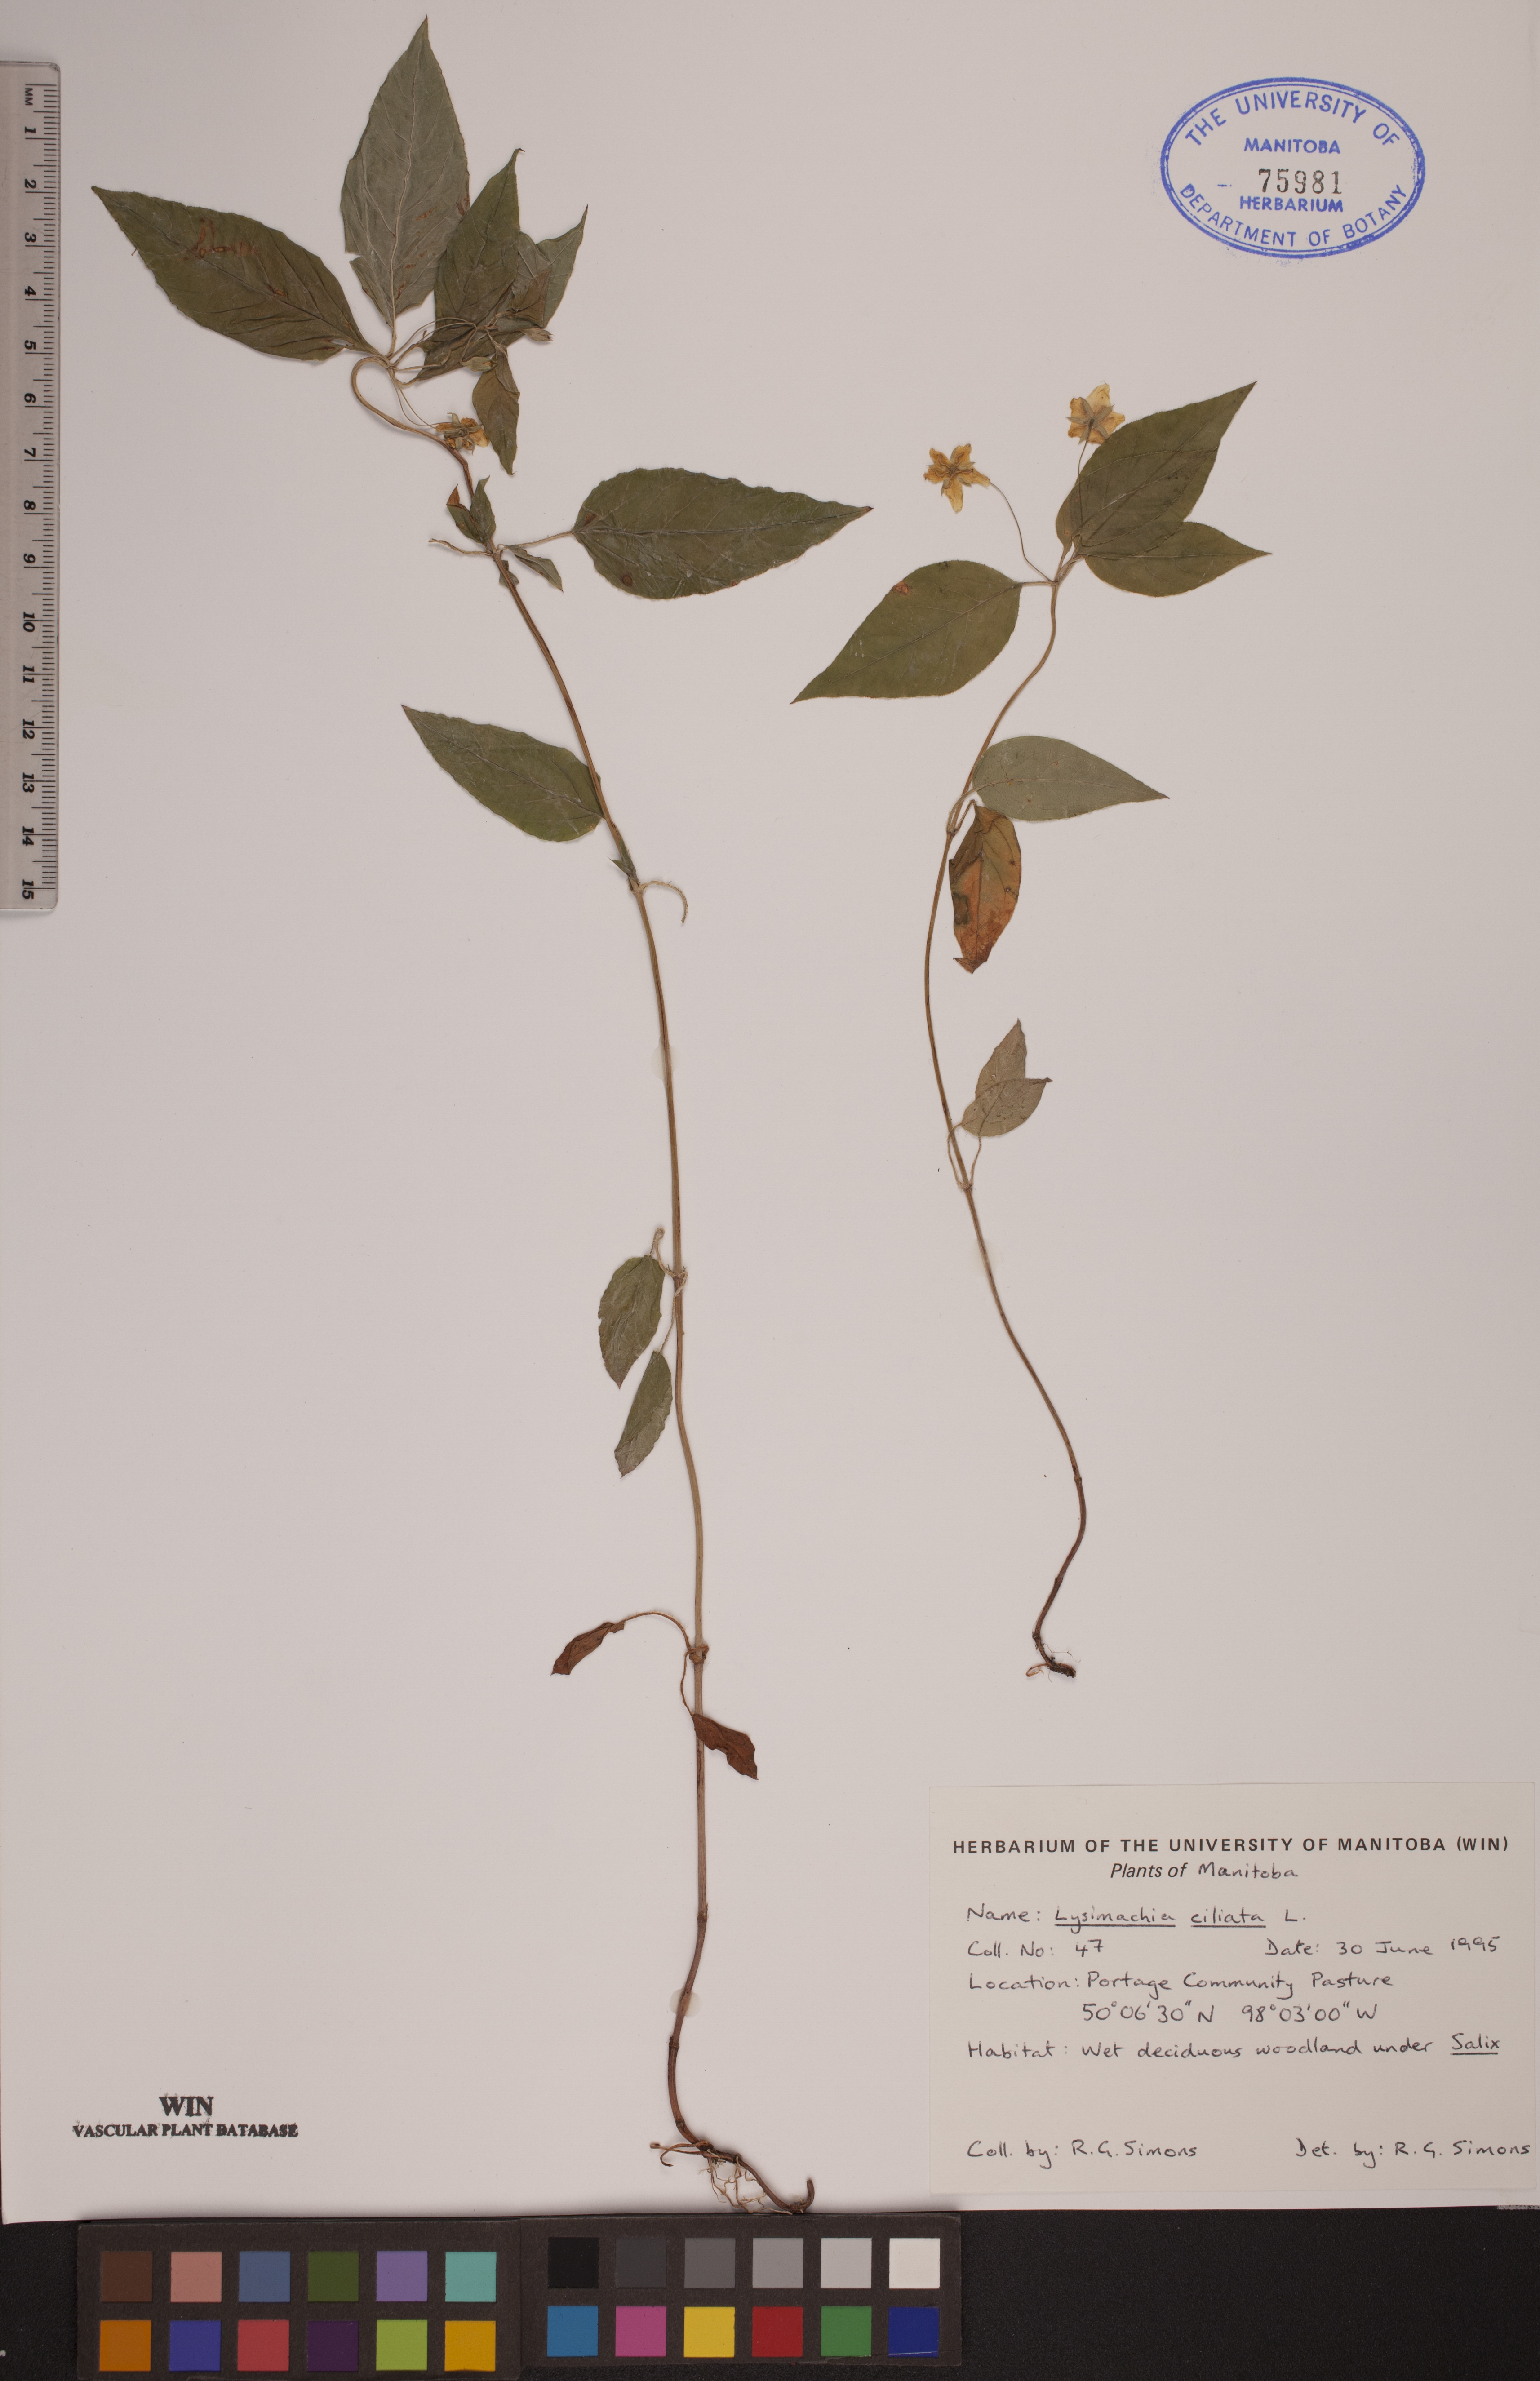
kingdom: Plantae
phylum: Tracheophyta
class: Magnoliopsida
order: Ericales
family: Primulaceae
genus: Lysimachia
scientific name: Lysimachia ciliata
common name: Fringed loosestrife
